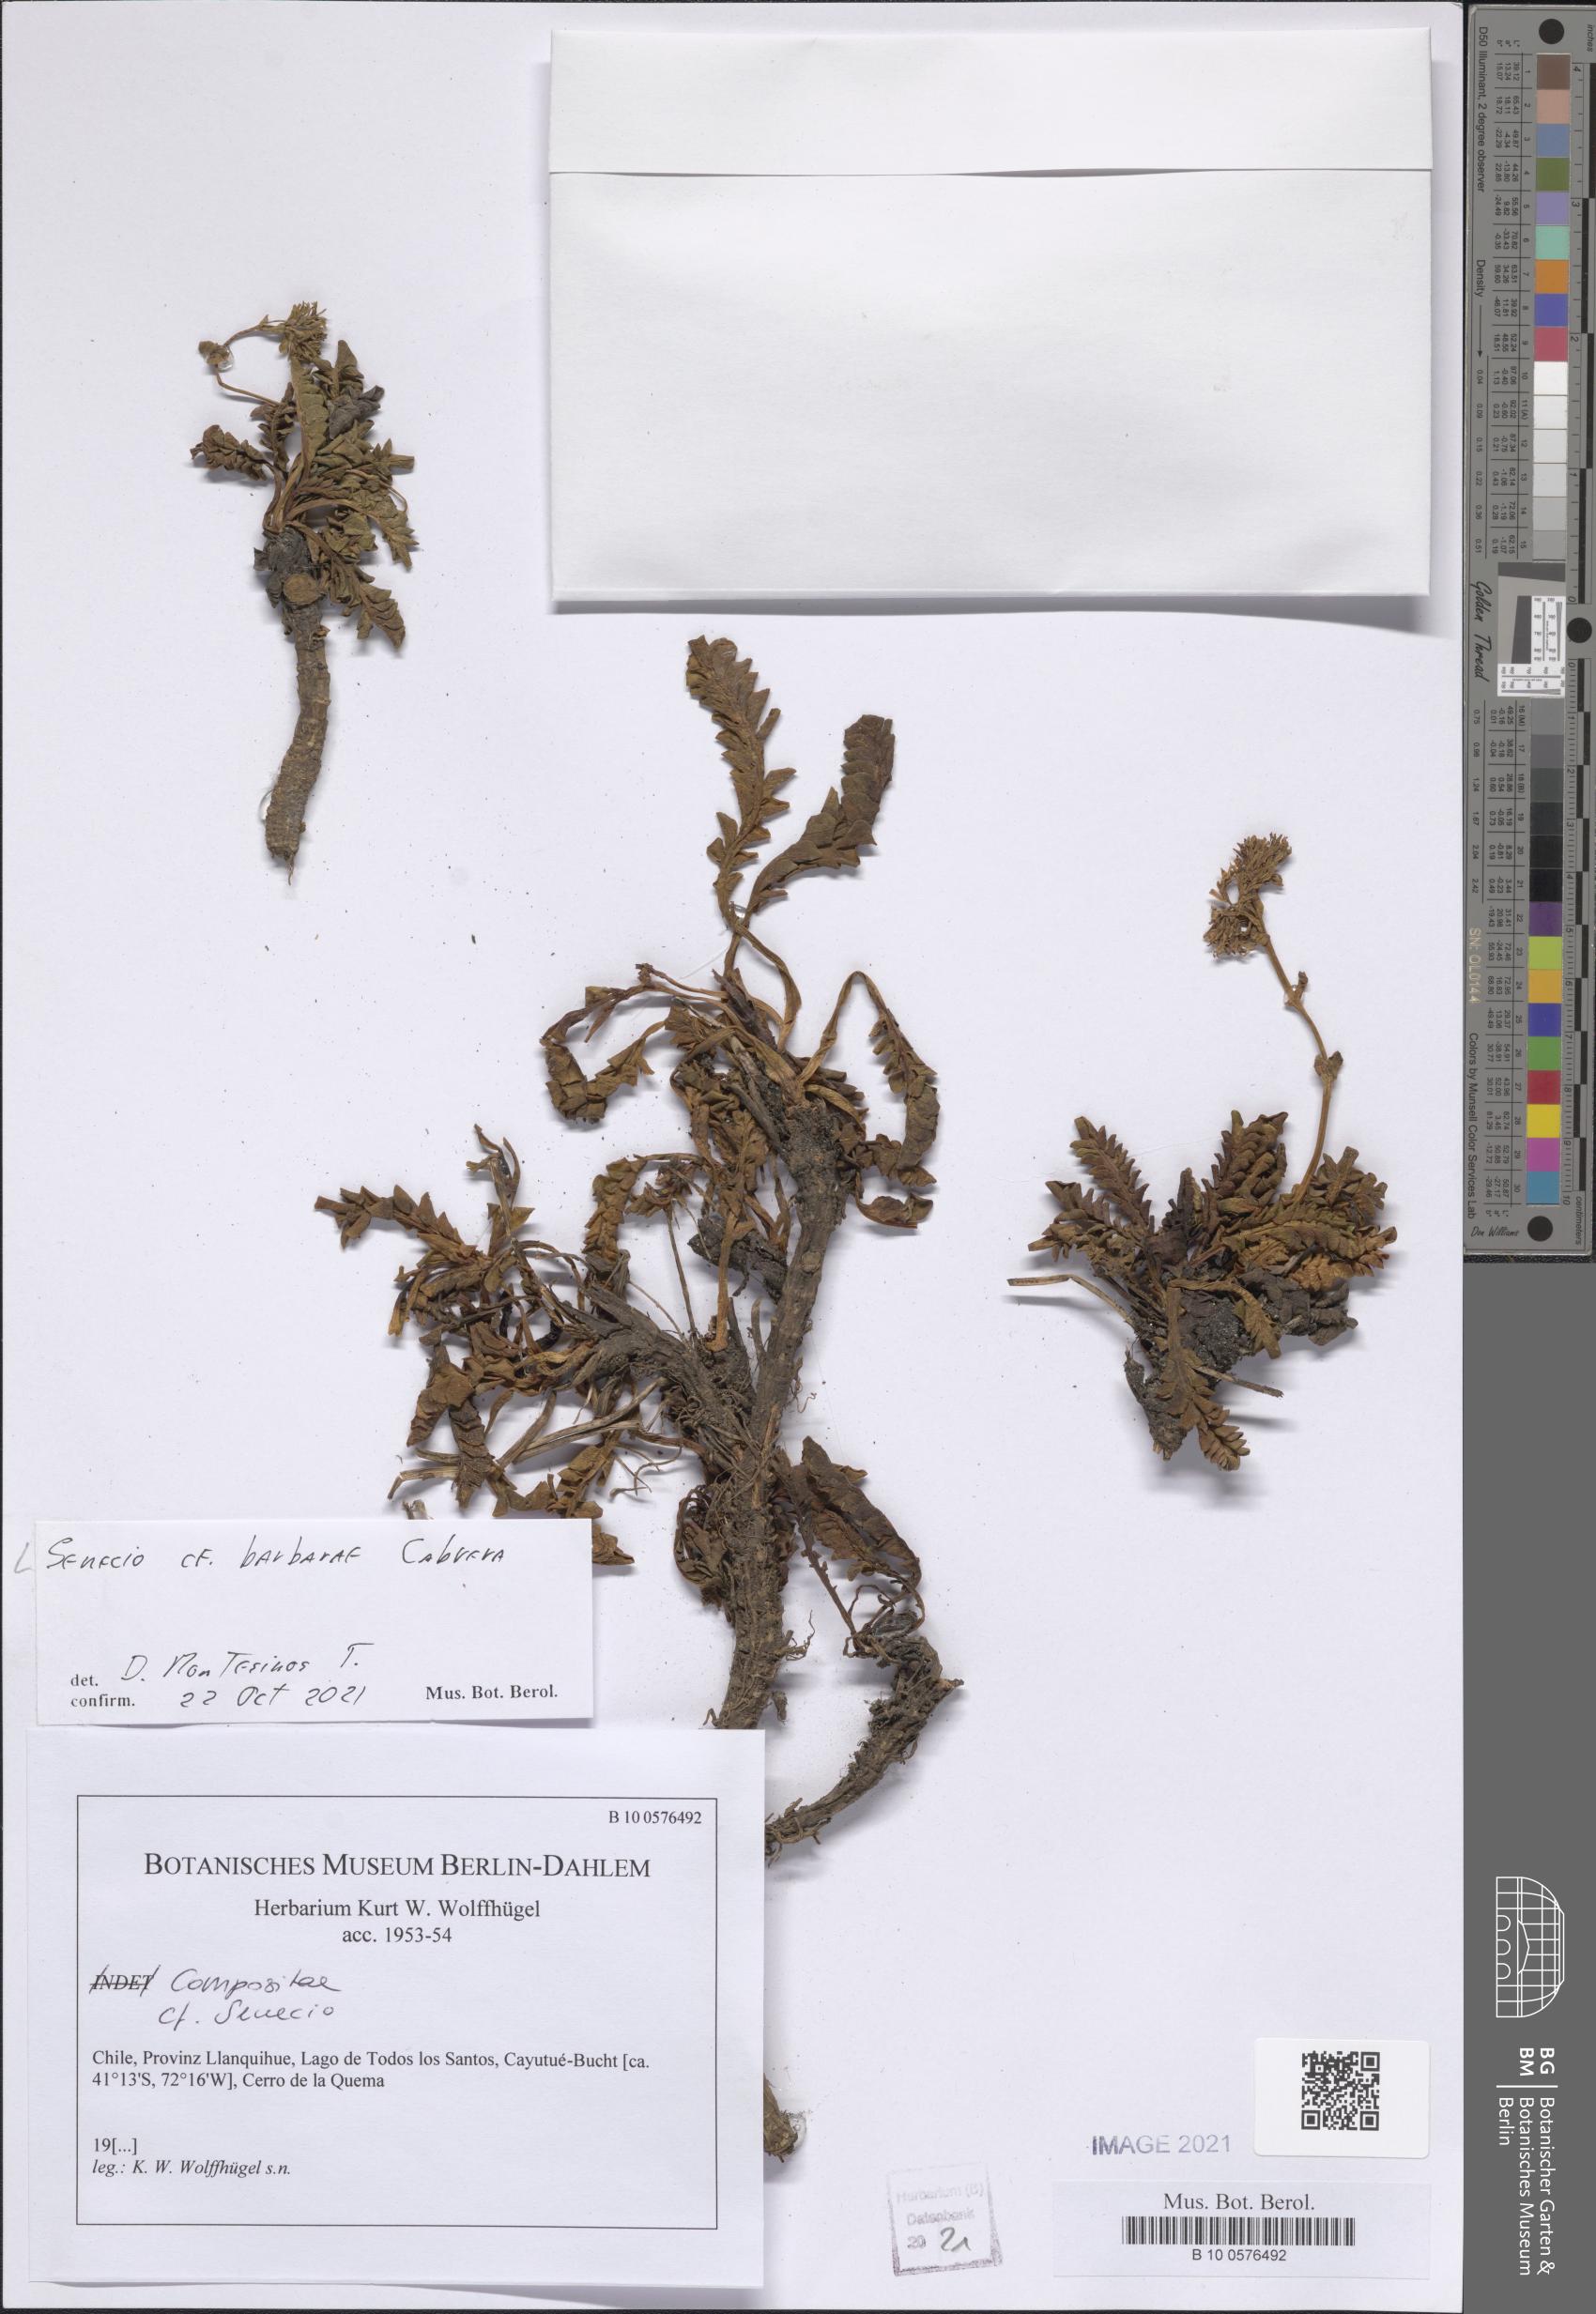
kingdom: Plantae
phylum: Tracheophyta
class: Magnoliopsida
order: Asterales
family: Asteraceae
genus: Senecio
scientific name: Senecio barbarae
